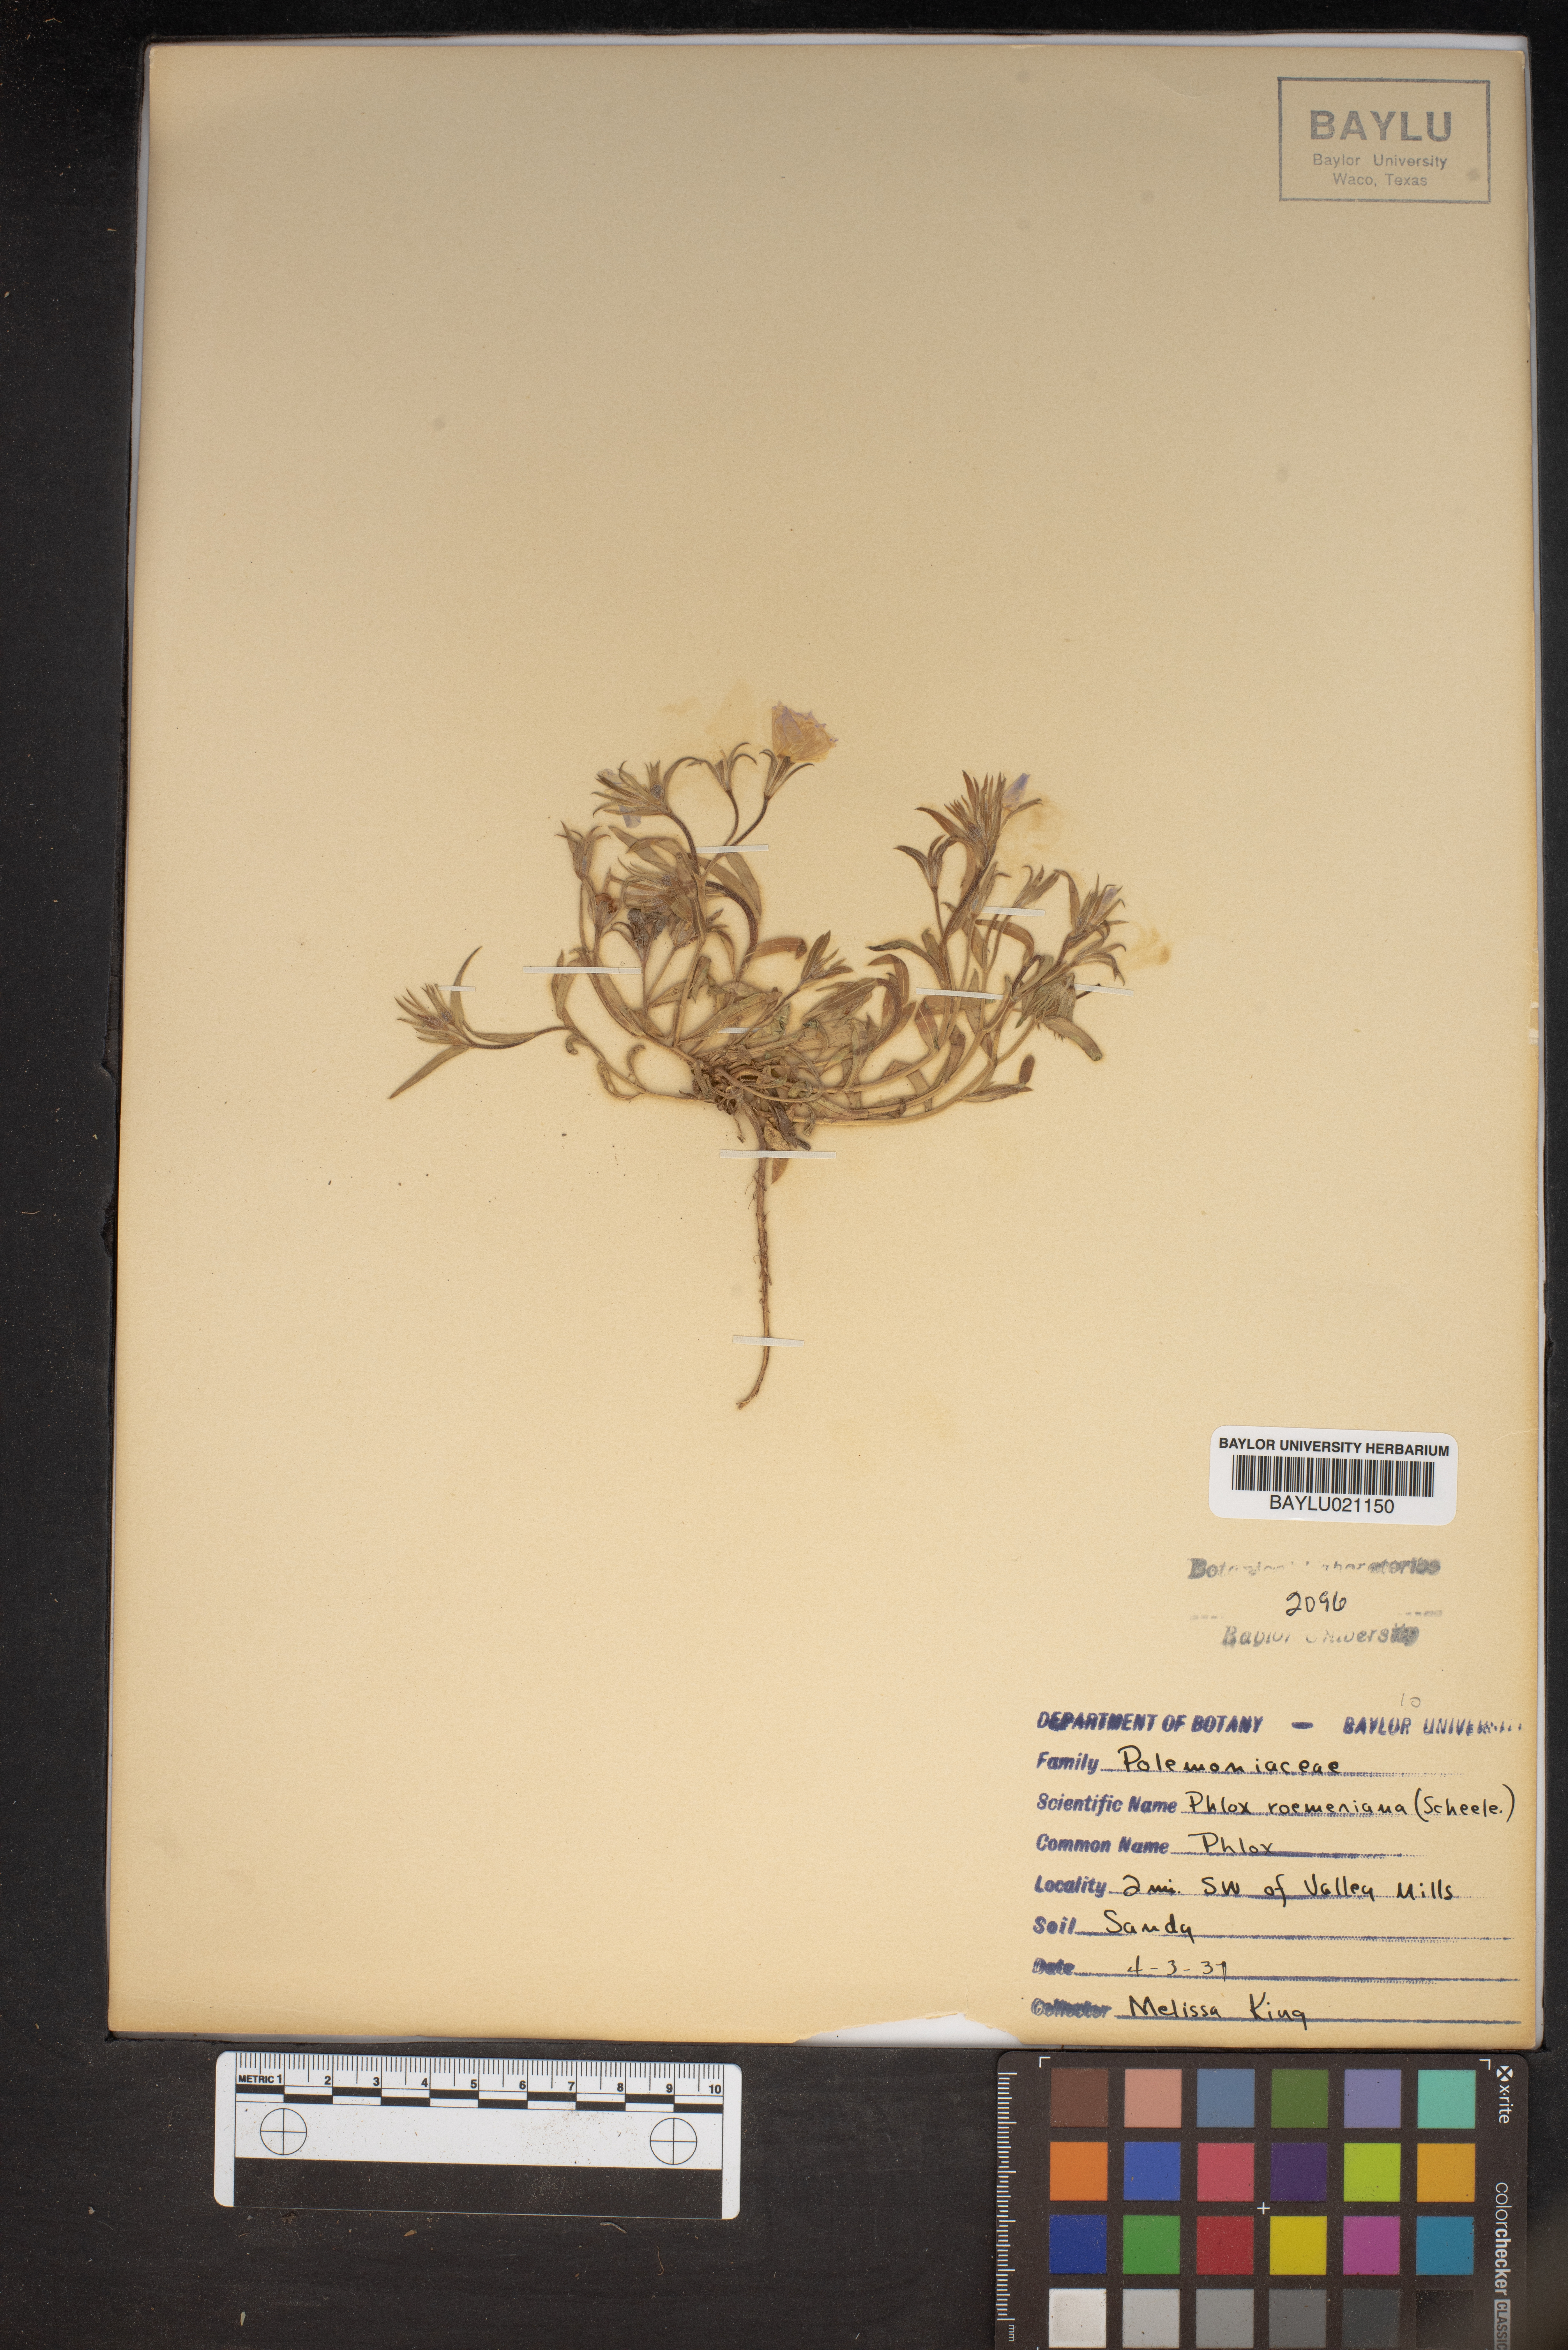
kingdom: Plantae
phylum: Tracheophyta
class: Magnoliopsida
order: Ericales
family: Polemoniaceae
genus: Phlox
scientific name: Phlox roemeriana
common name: Roemer's phlox
